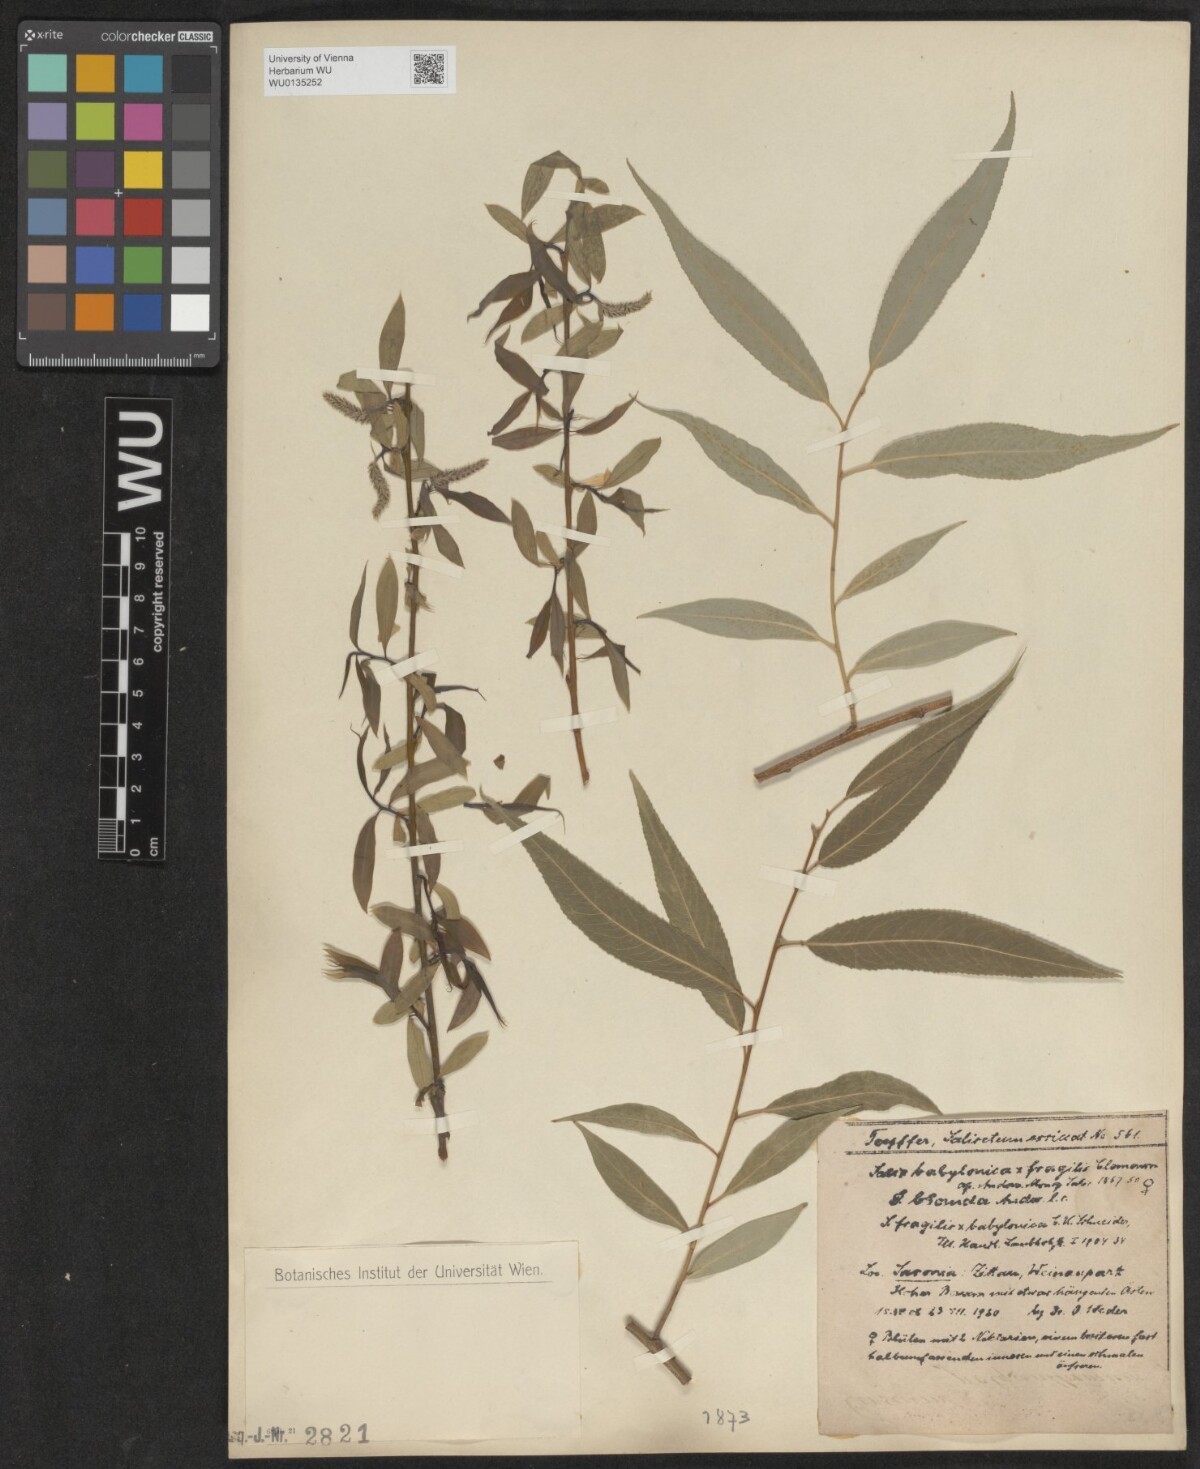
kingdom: Plantae
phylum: Tracheophyta
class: Magnoliopsida
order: Malpighiales
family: Salicaceae
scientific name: Salicaceae
